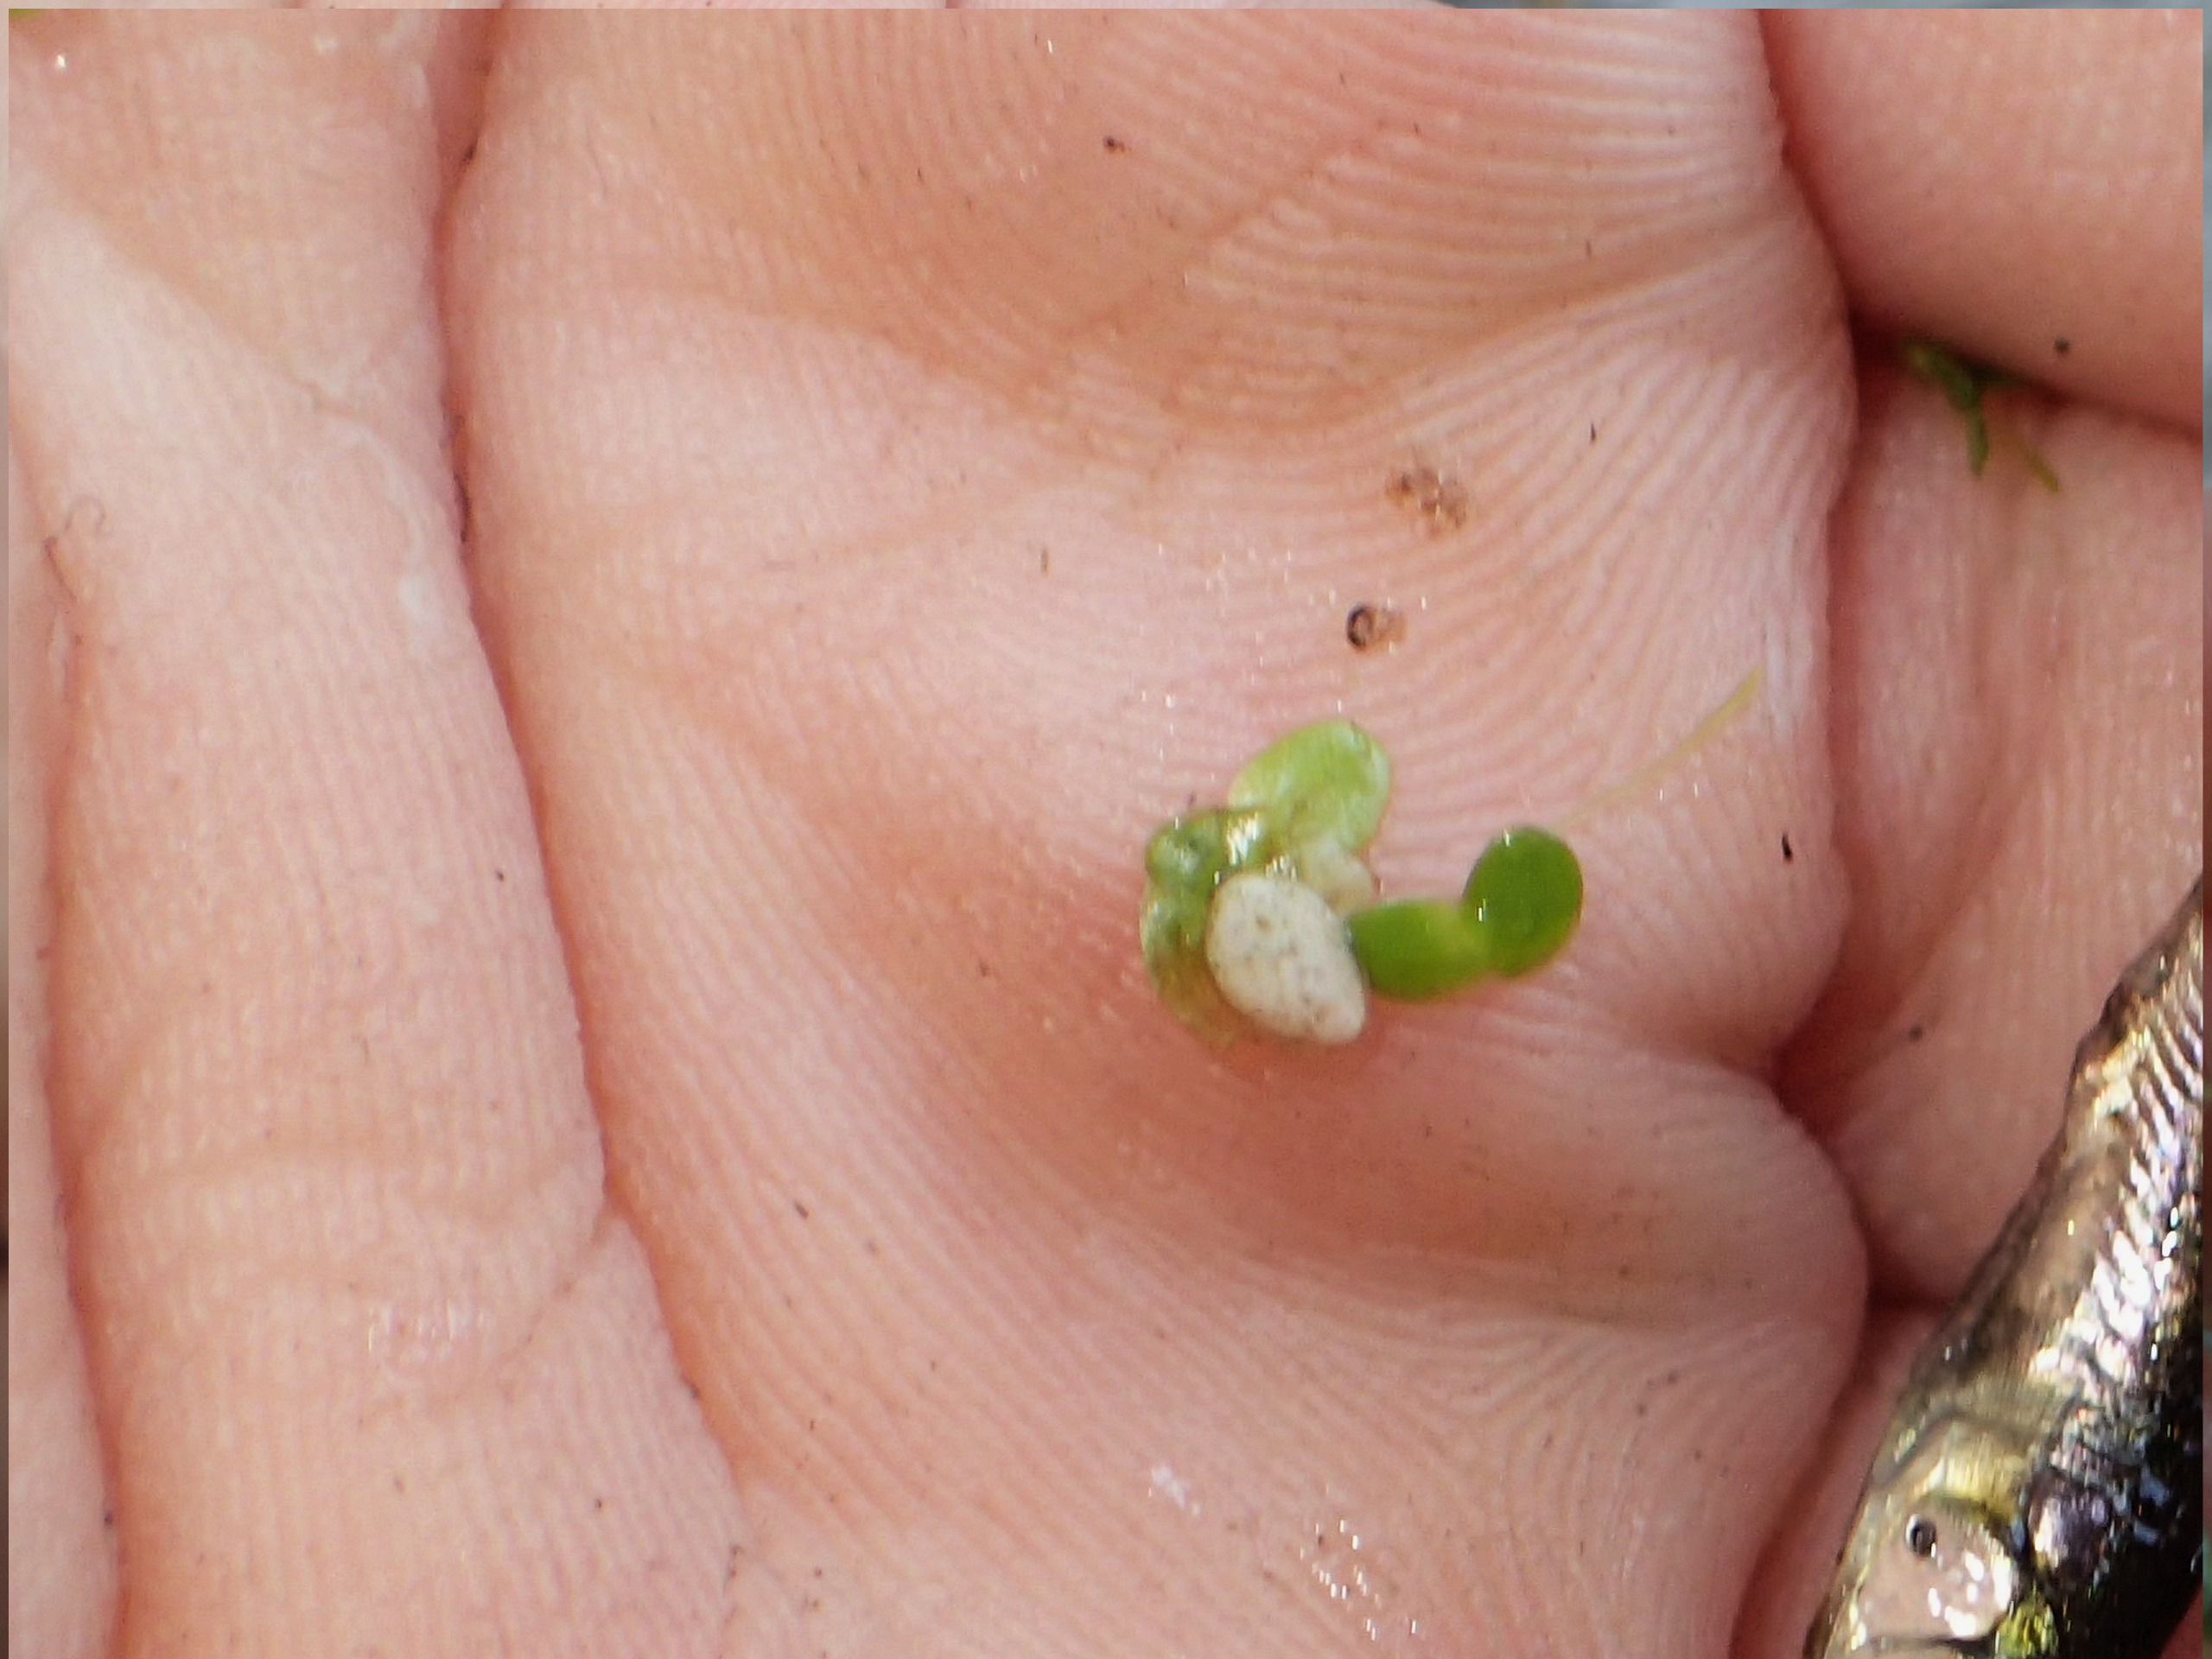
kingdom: Plantae
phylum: Tracheophyta
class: Liliopsida
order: Alismatales
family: Araceae
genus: Lemna
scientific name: Lemna minor
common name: Liden andemad
